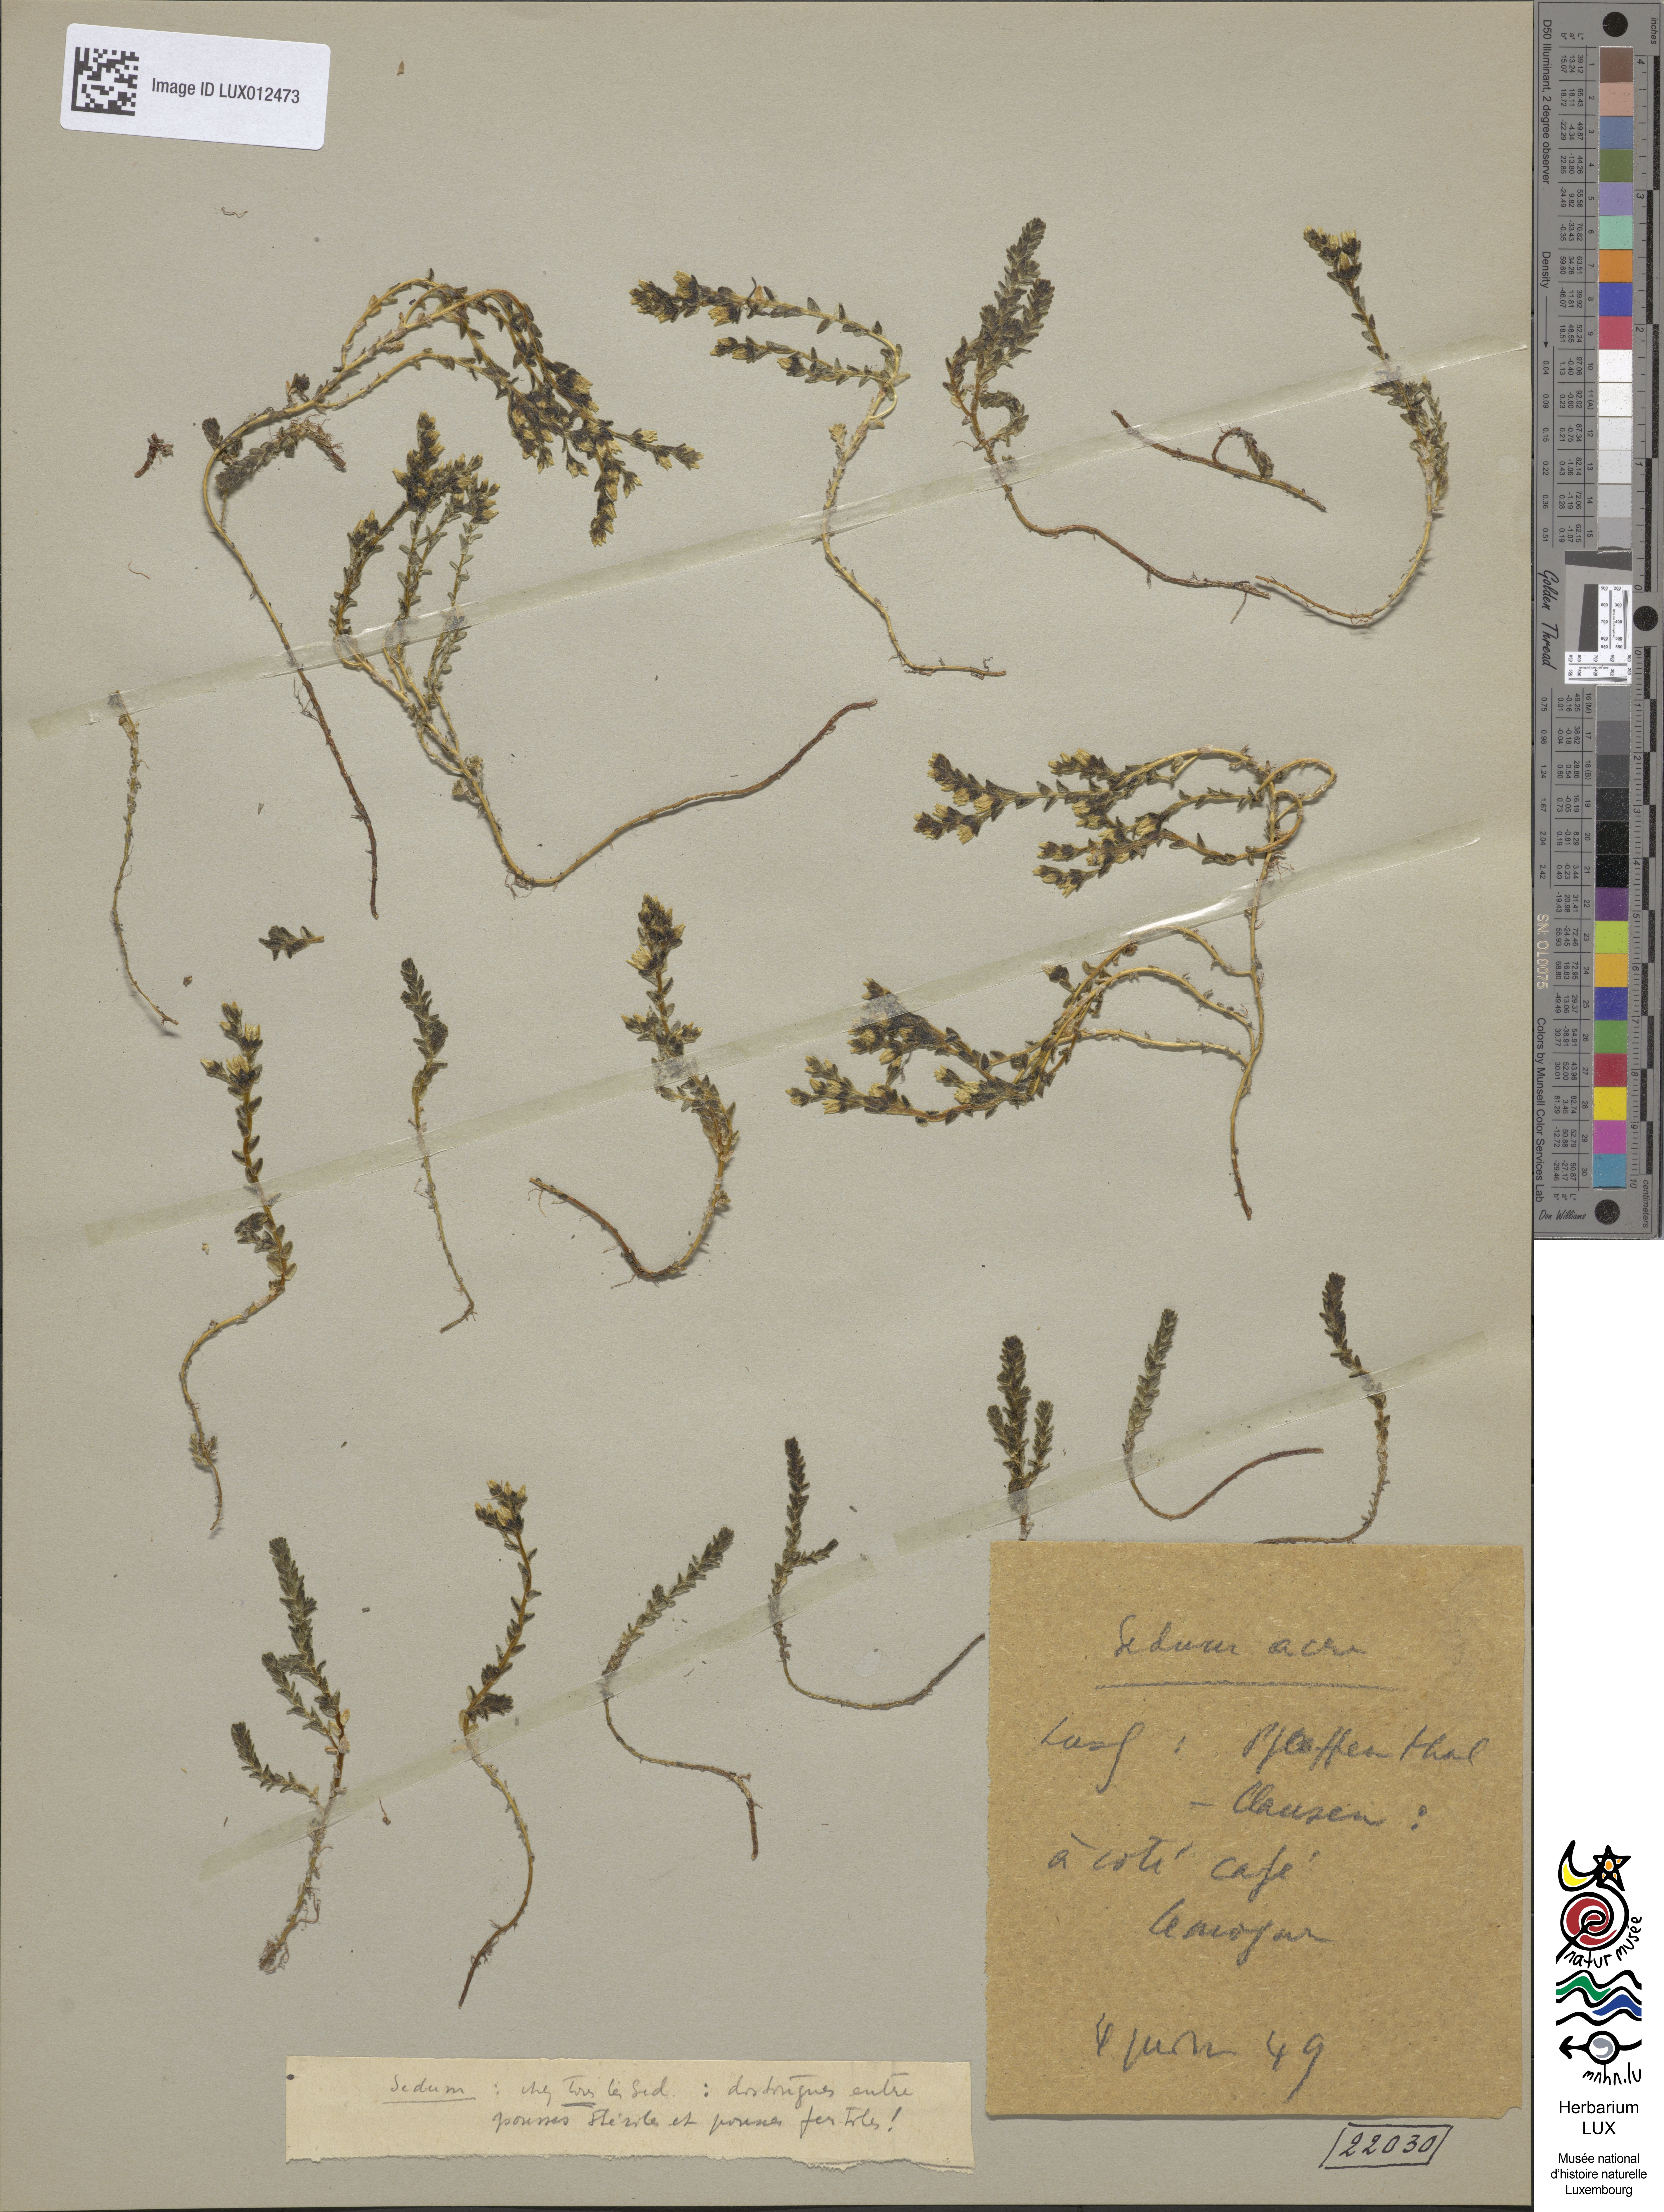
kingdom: Plantae
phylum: Tracheophyta
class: Magnoliopsida
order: Saxifragales
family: Crassulaceae
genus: Sedum
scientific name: Sedum acre
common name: Biting stonecrop
